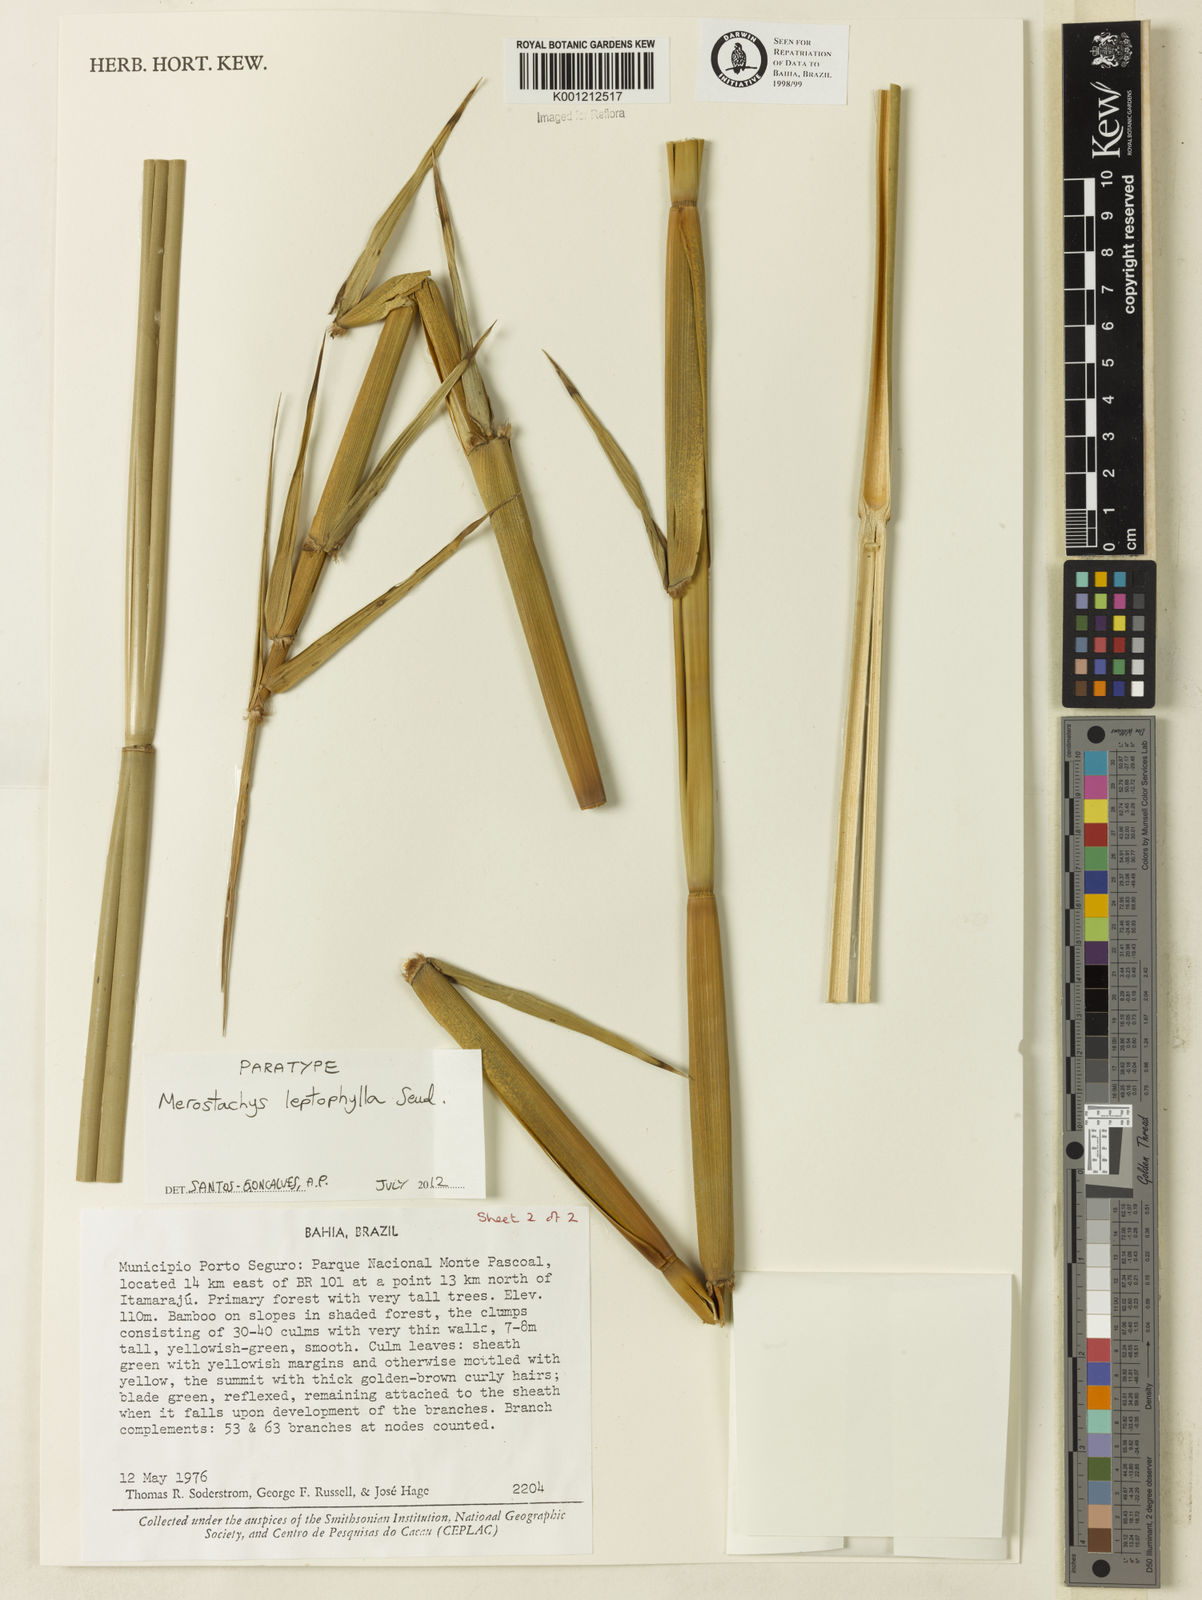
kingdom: Plantae
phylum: Tracheophyta
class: Liliopsida
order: Poales
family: Poaceae
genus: Merostachys
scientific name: Merostachys leptophylla
